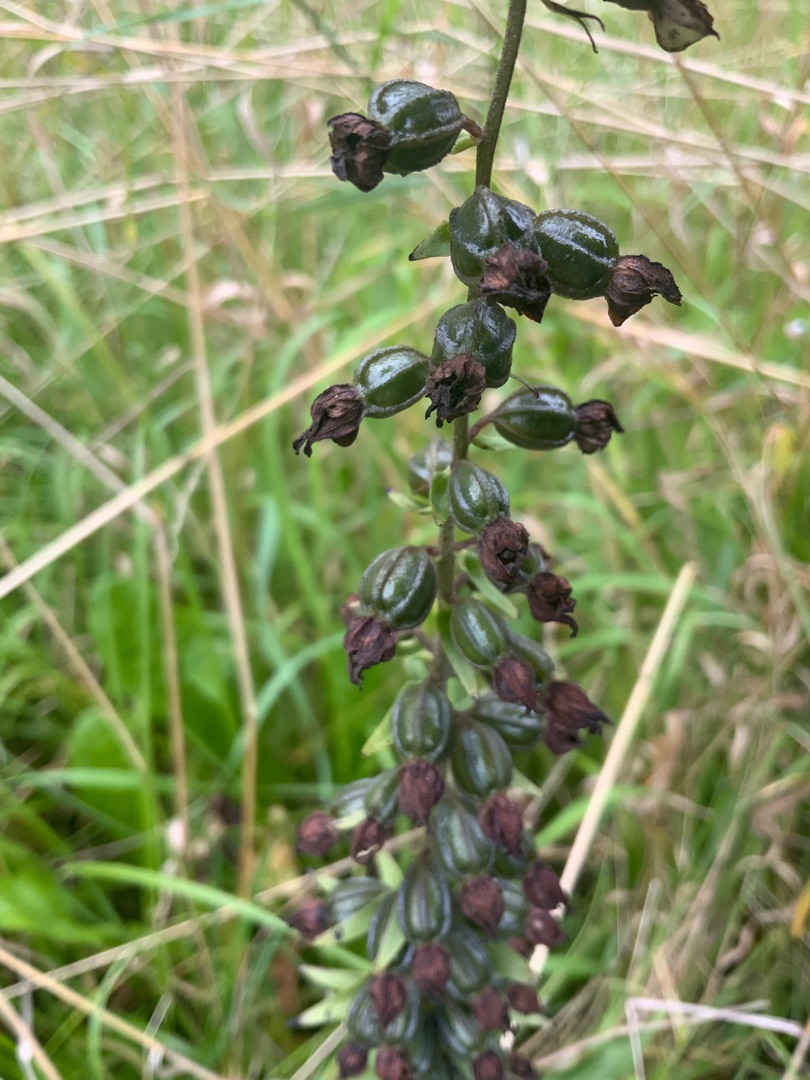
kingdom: Plantae
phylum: Tracheophyta
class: Liliopsida
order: Asparagales
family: Orchidaceae
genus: Epipactis
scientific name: Epipactis helleborine
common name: Skov-hullæbe
